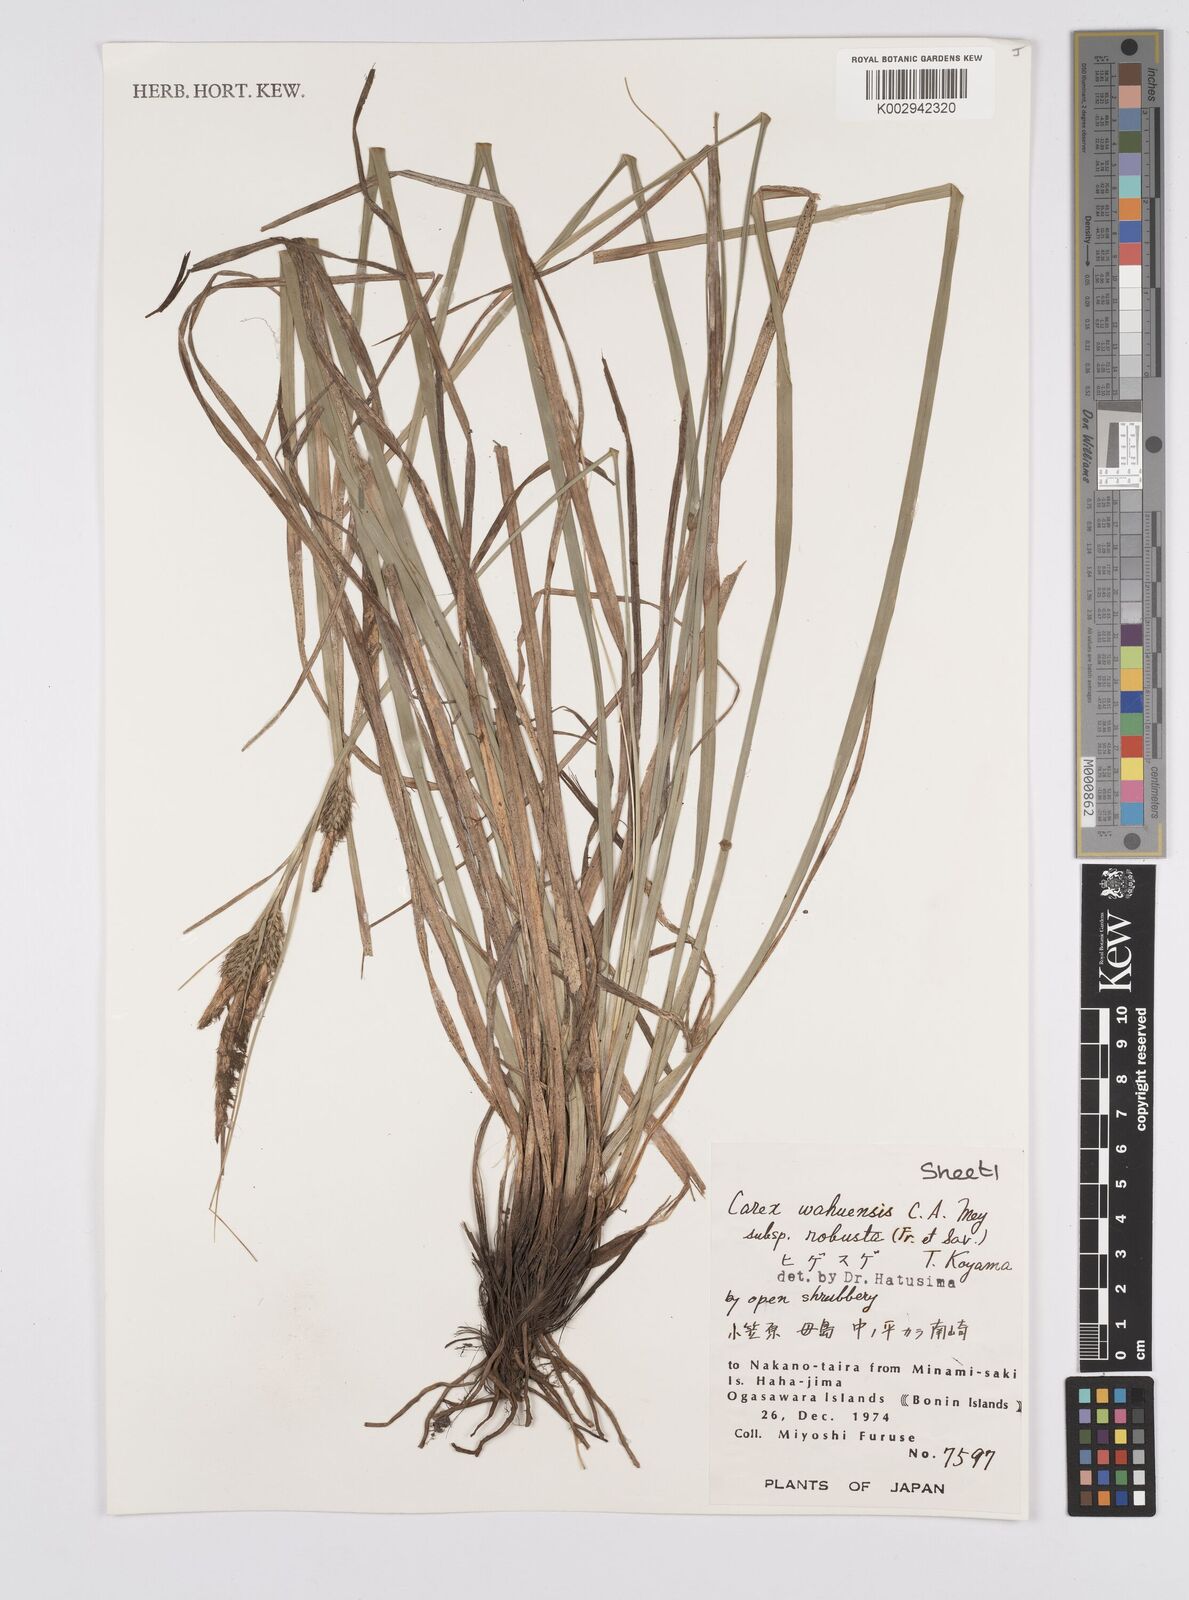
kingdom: Plantae
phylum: Tracheophyta
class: Liliopsida
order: Poales
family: Cyperaceae
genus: Carex
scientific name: Carex wahuensis
